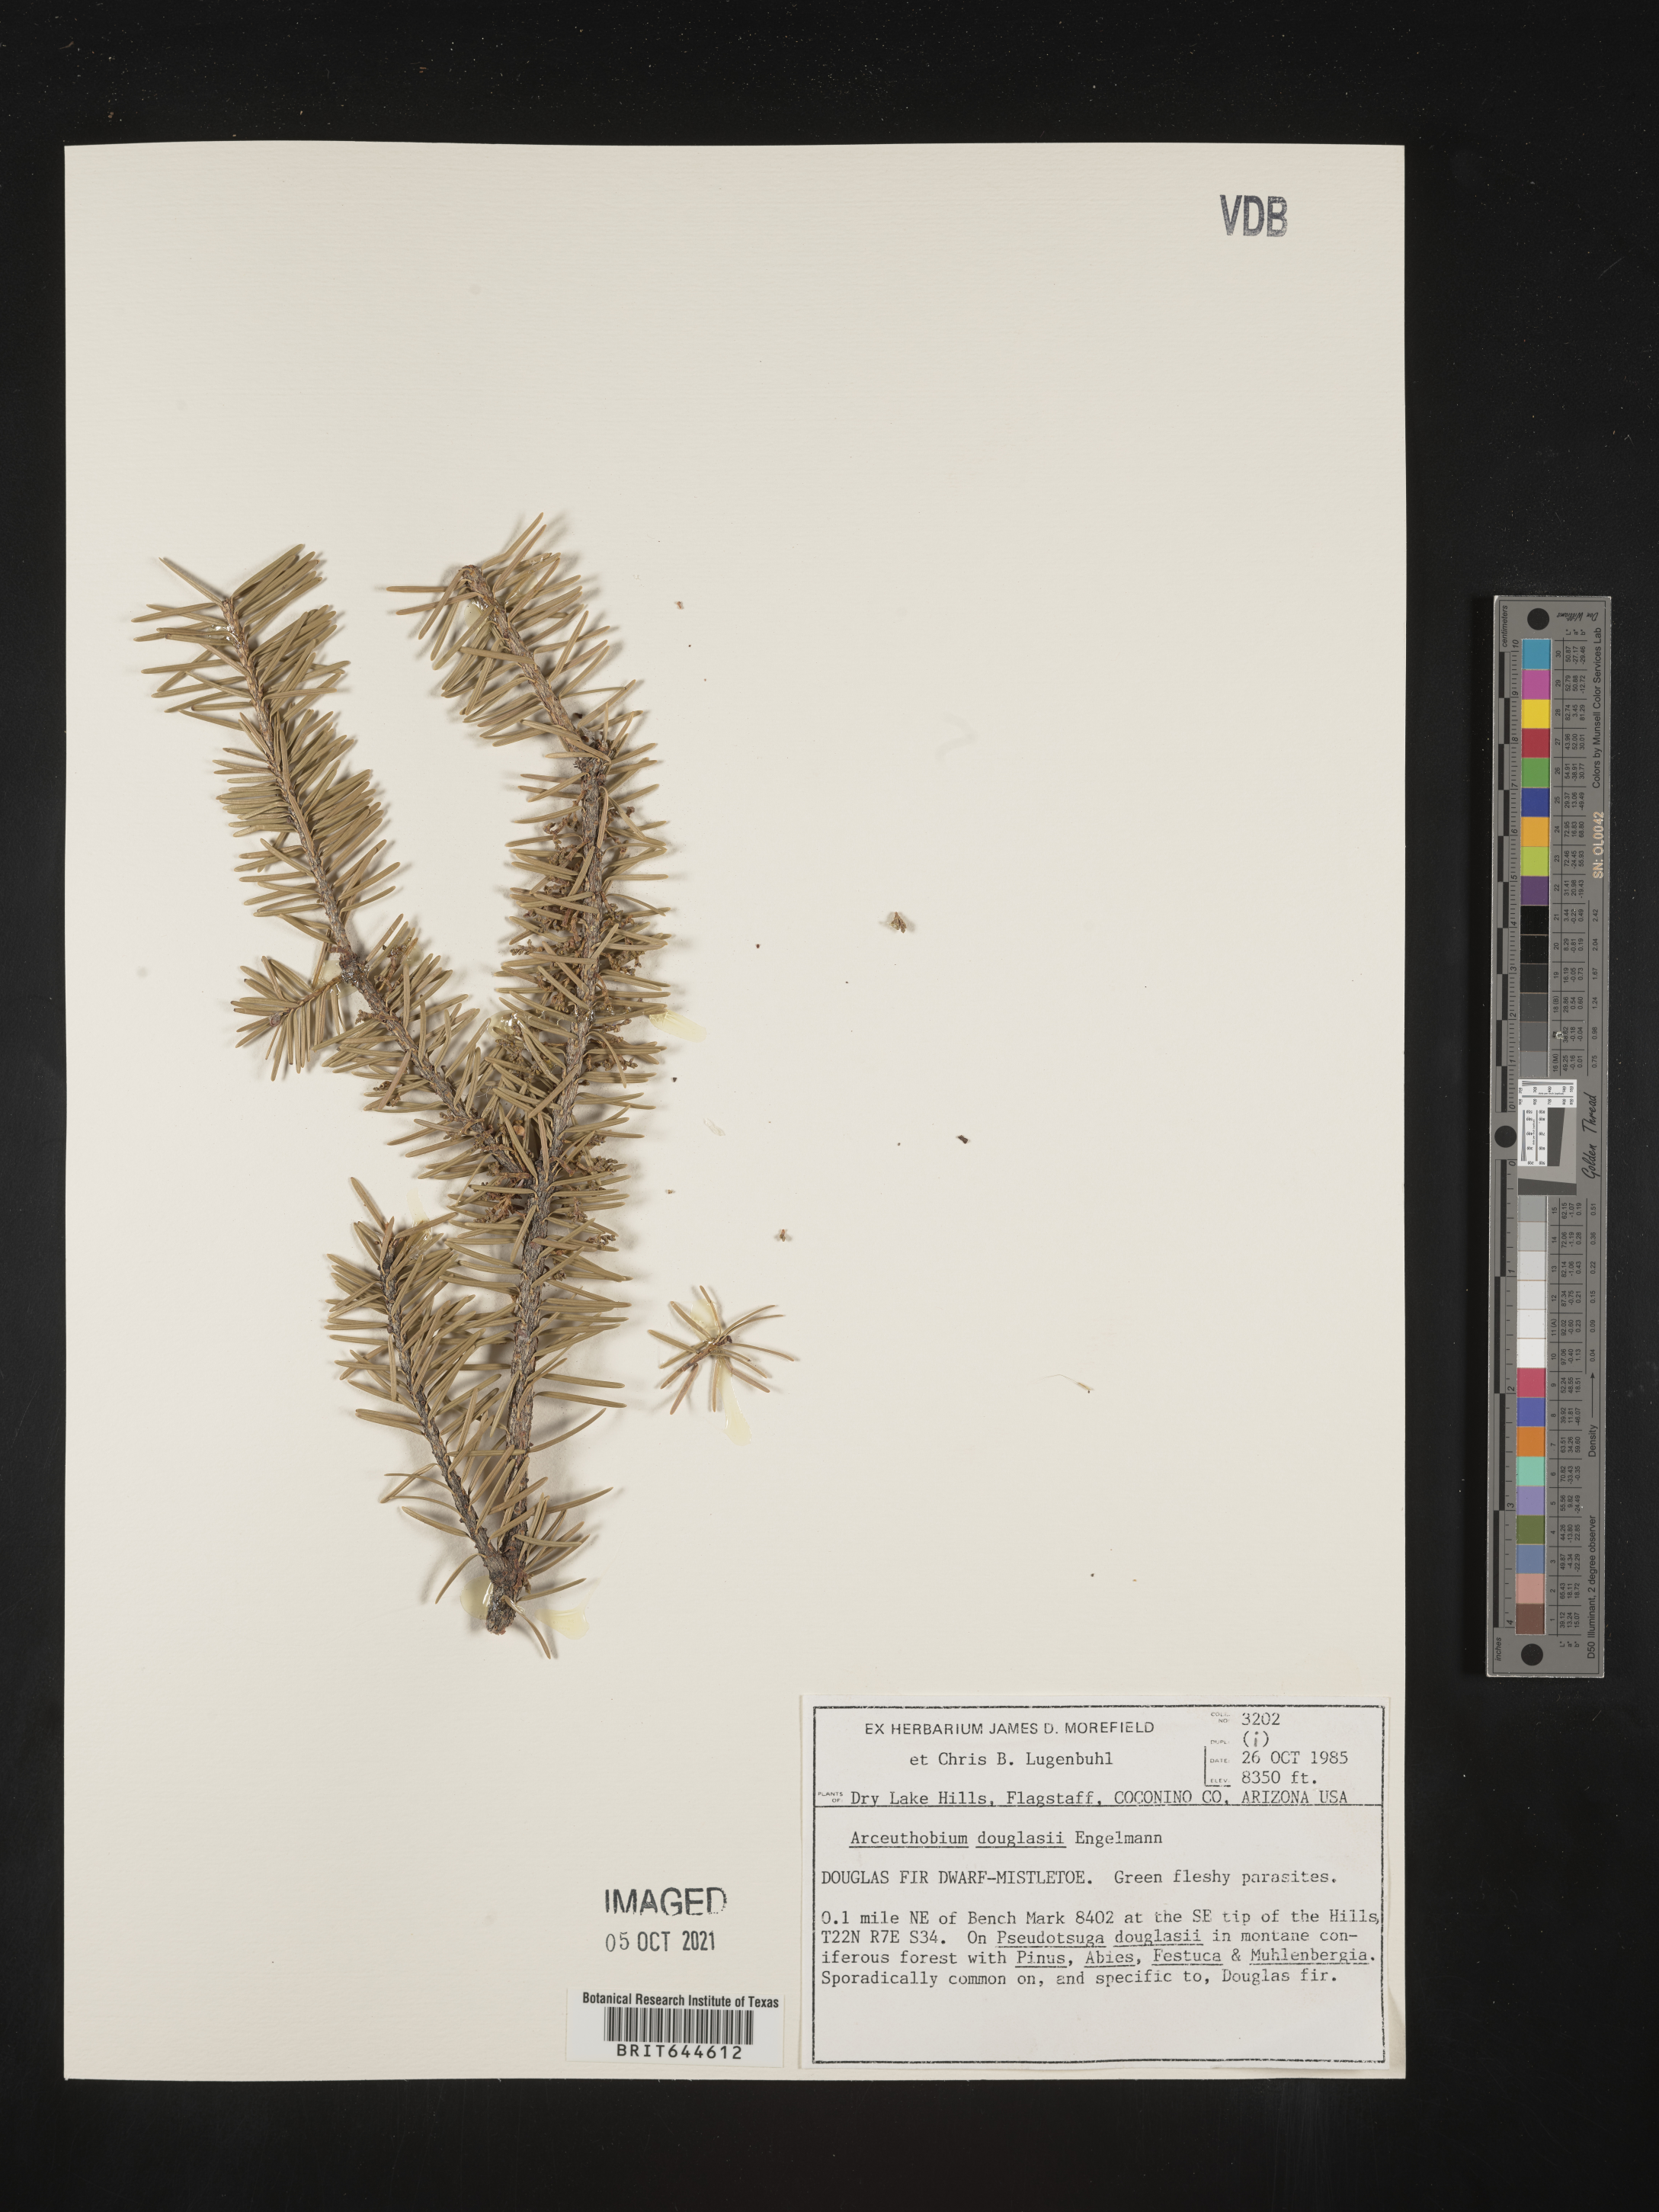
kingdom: Plantae
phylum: Tracheophyta
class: Magnoliopsida
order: Santalales
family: Viscaceae
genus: Arceuthobium
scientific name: Arceuthobium douglasii
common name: Douglas' dwarf mistletoe
